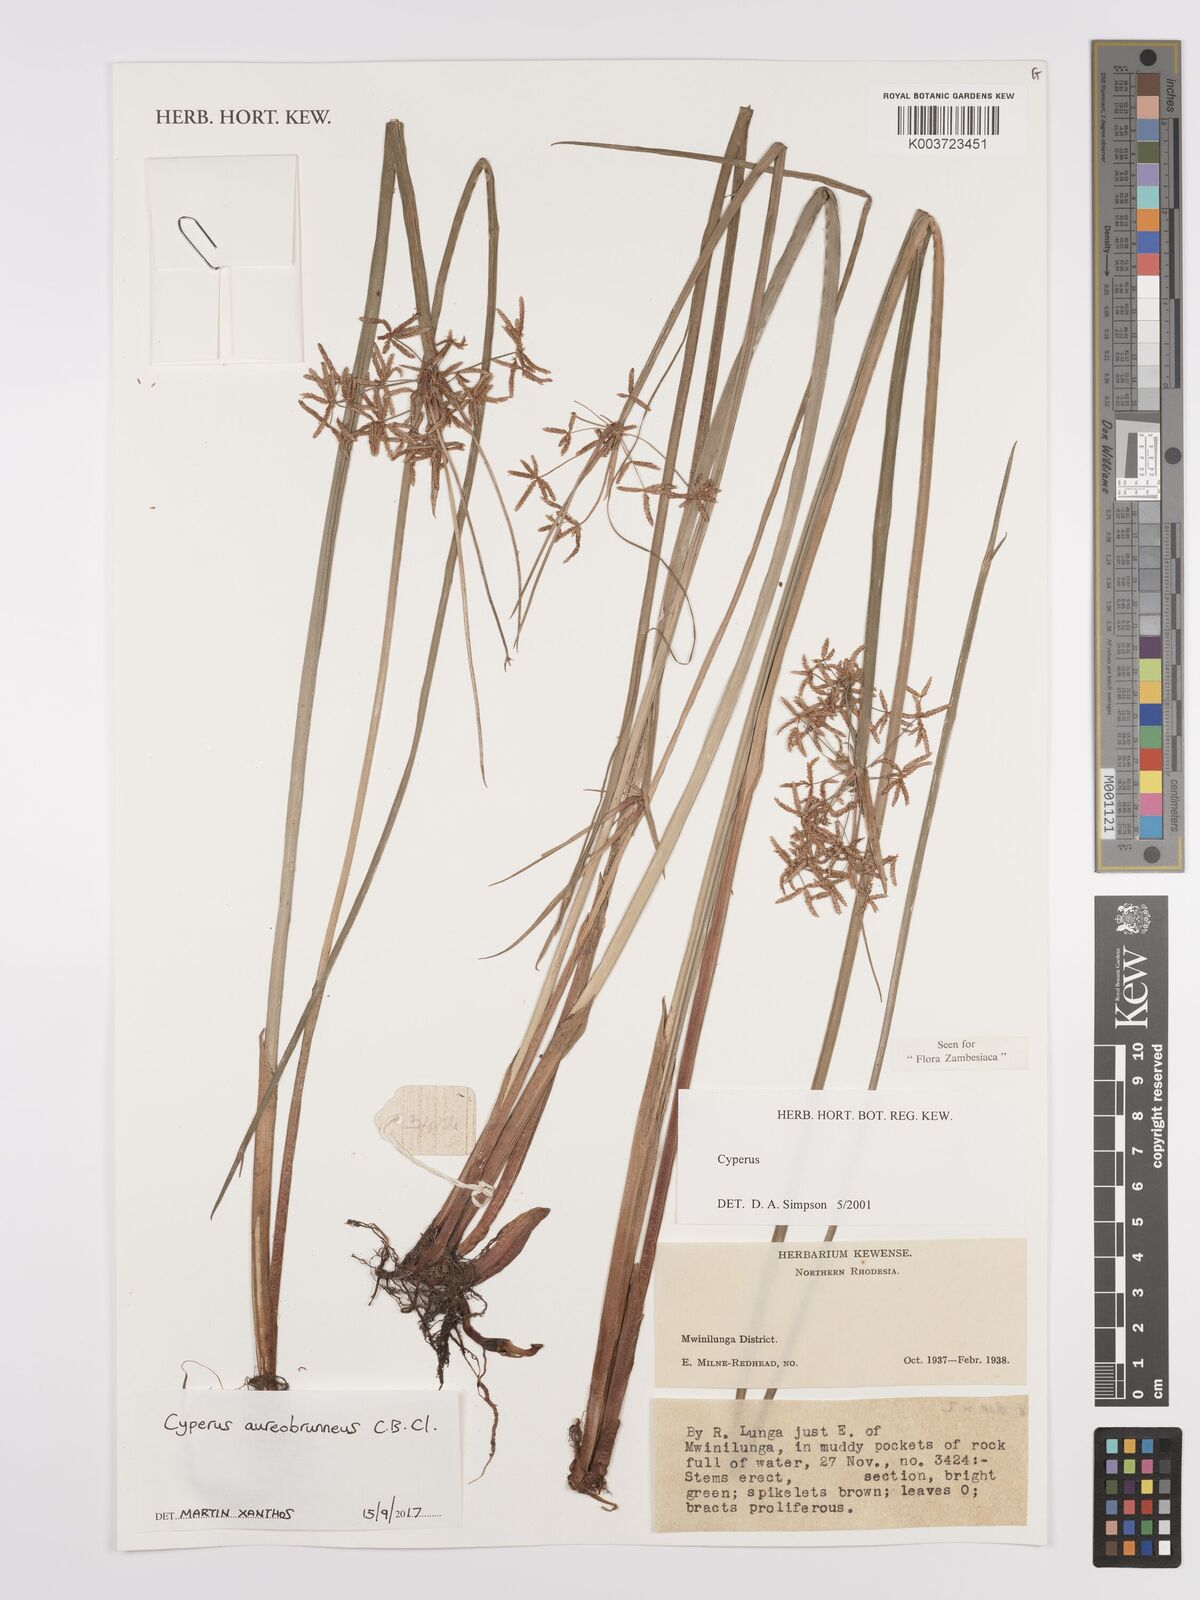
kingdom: Plantae
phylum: Tracheophyta
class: Liliopsida
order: Poales
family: Cyperaceae
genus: Cyperus
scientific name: Cyperus aureobrunneus
